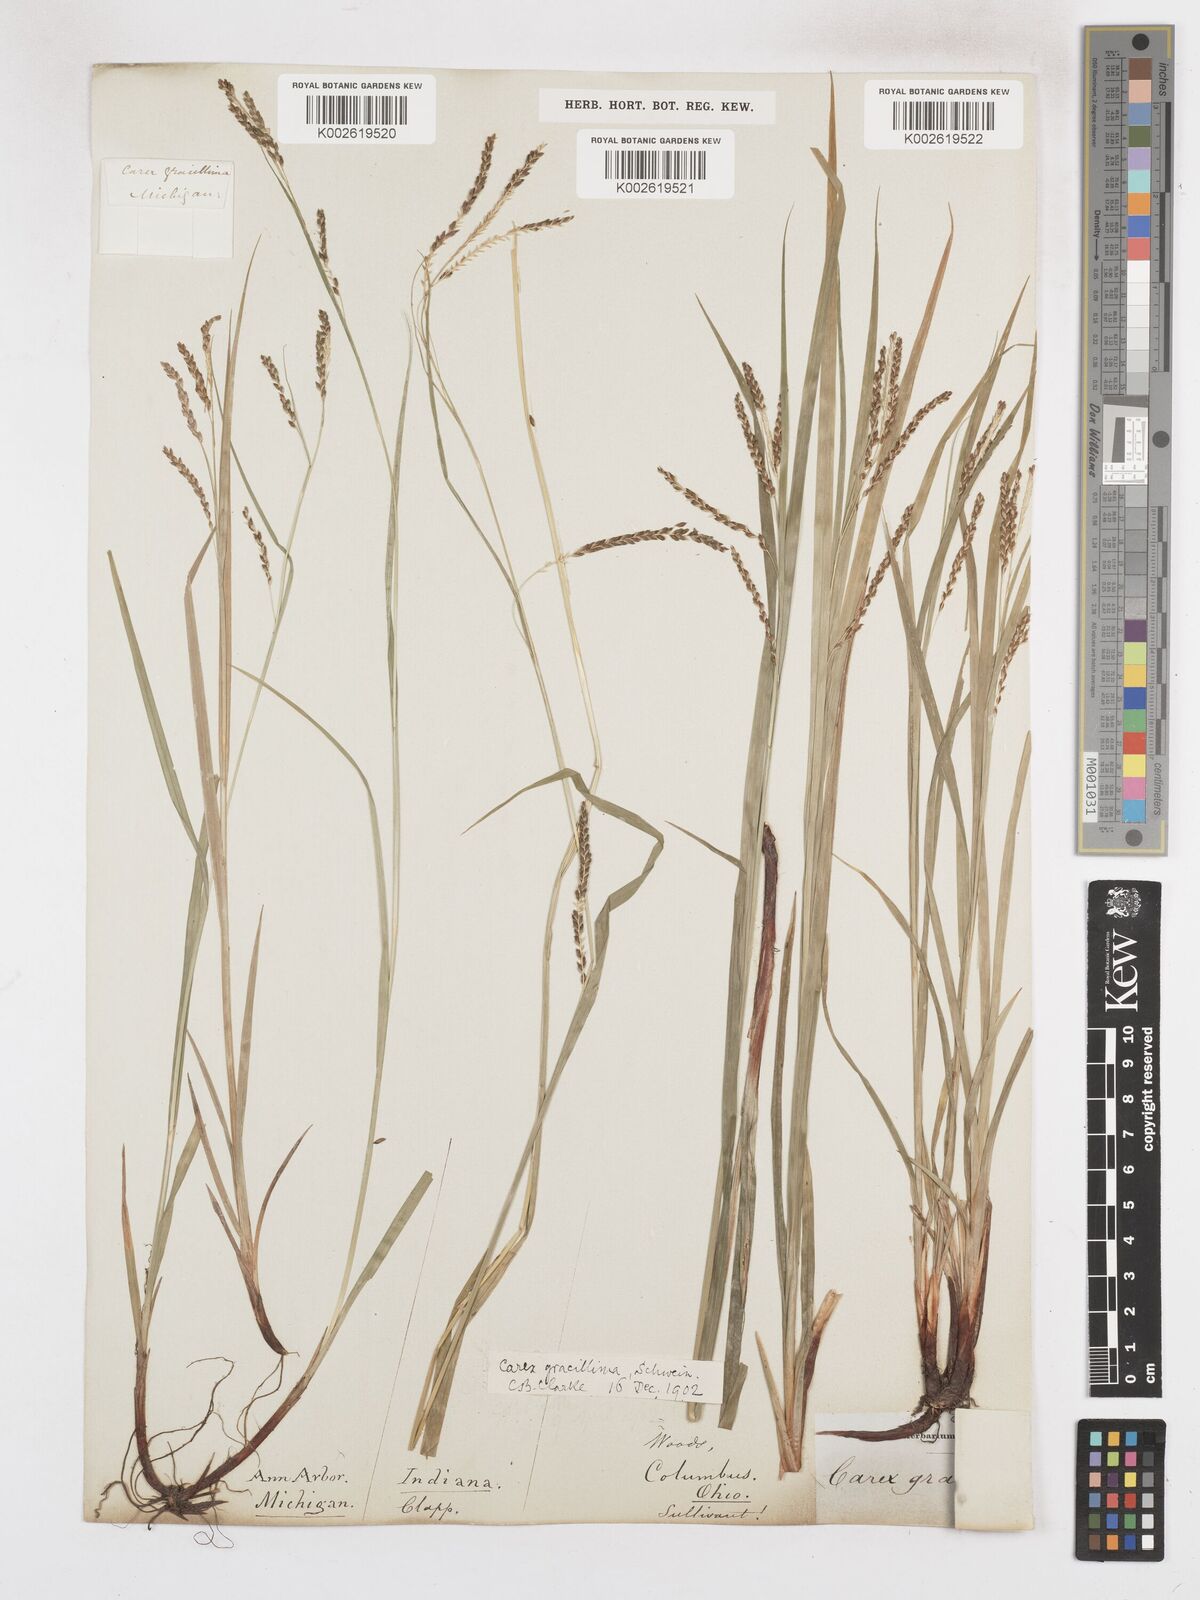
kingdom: Plantae
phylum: Tracheophyta
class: Liliopsida
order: Poales
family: Cyperaceae
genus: Carex
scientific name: Carex gracillima
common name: Graceful sedge
